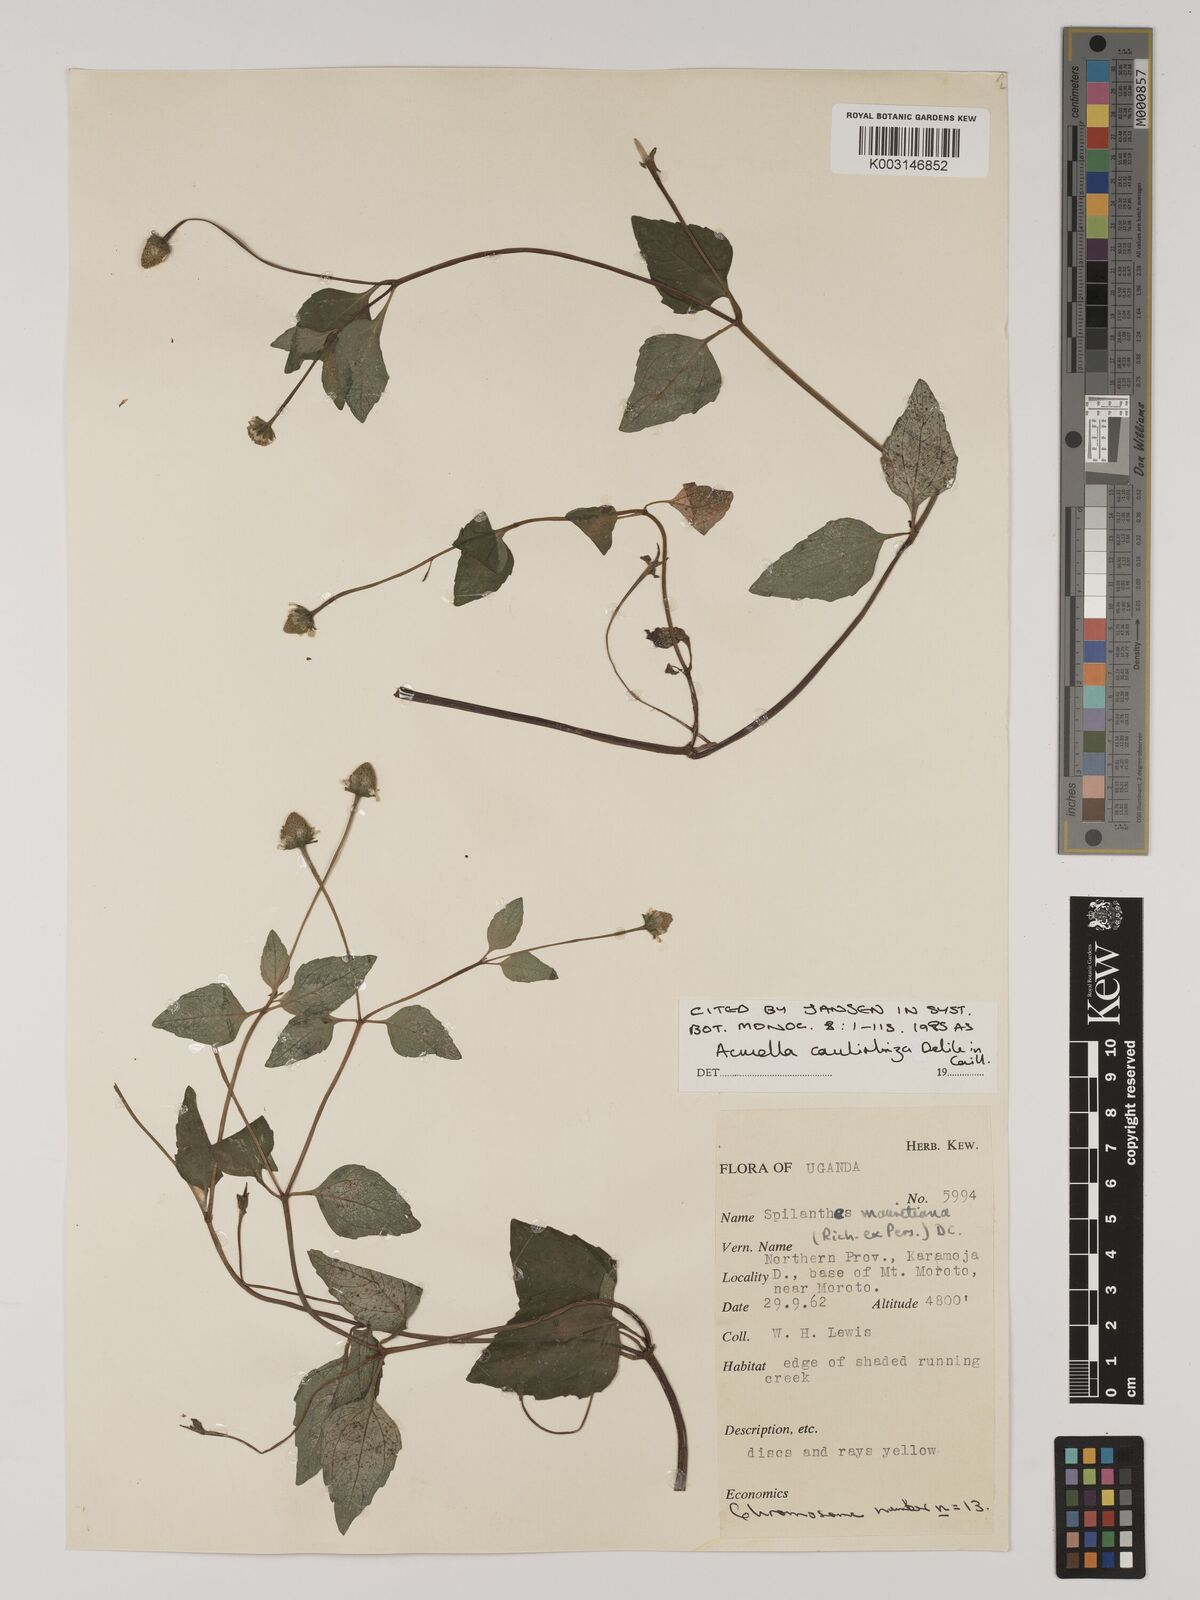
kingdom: Plantae
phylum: Tracheophyta
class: Magnoliopsida
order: Asterales
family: Asteraceae
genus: Acmella
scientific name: Acmella caulirhiza
